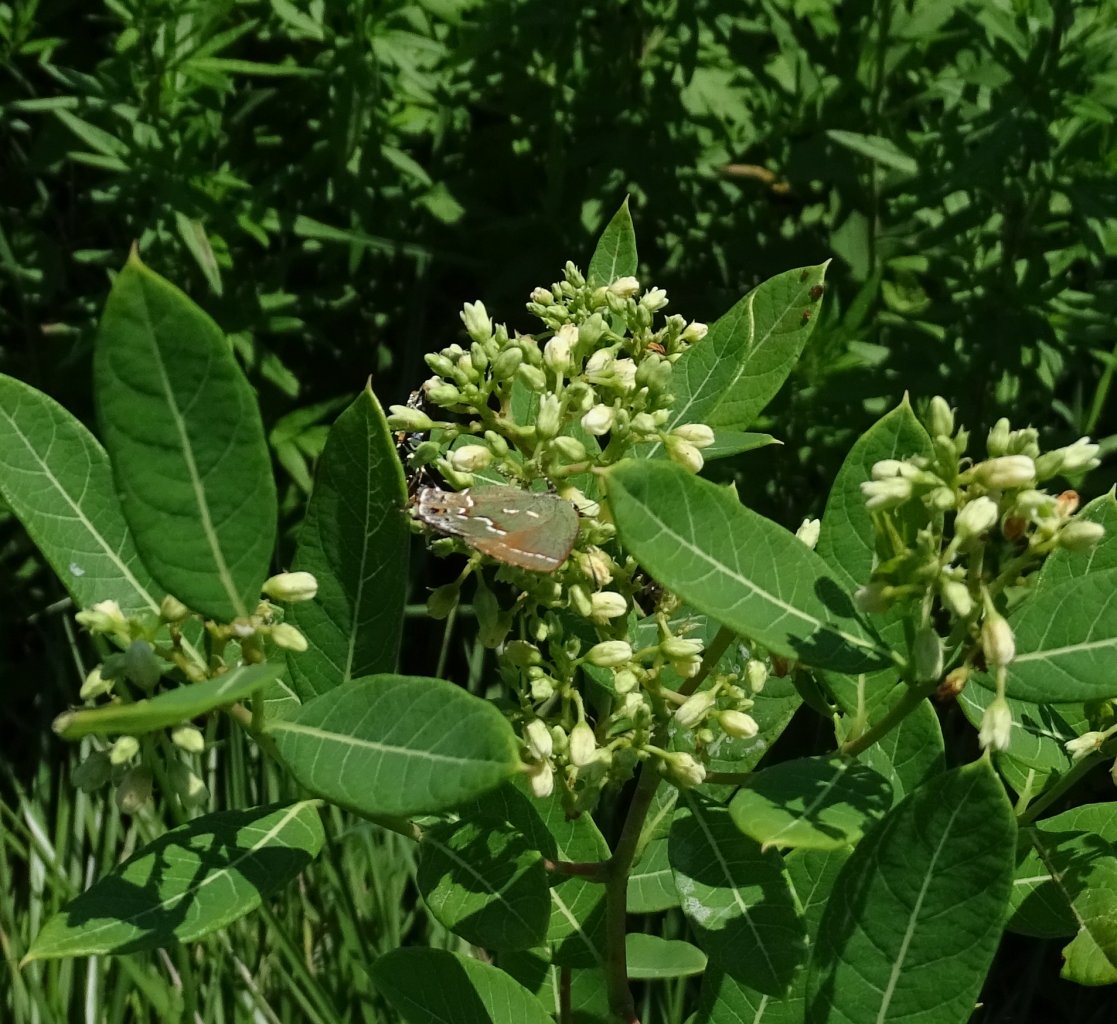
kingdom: Animalia
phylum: Arthropoda
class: Insecta
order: Lepidoptera
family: Lycaenidae
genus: Mitoura
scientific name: Mitoura gryneus
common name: Juniper Hairstreak
